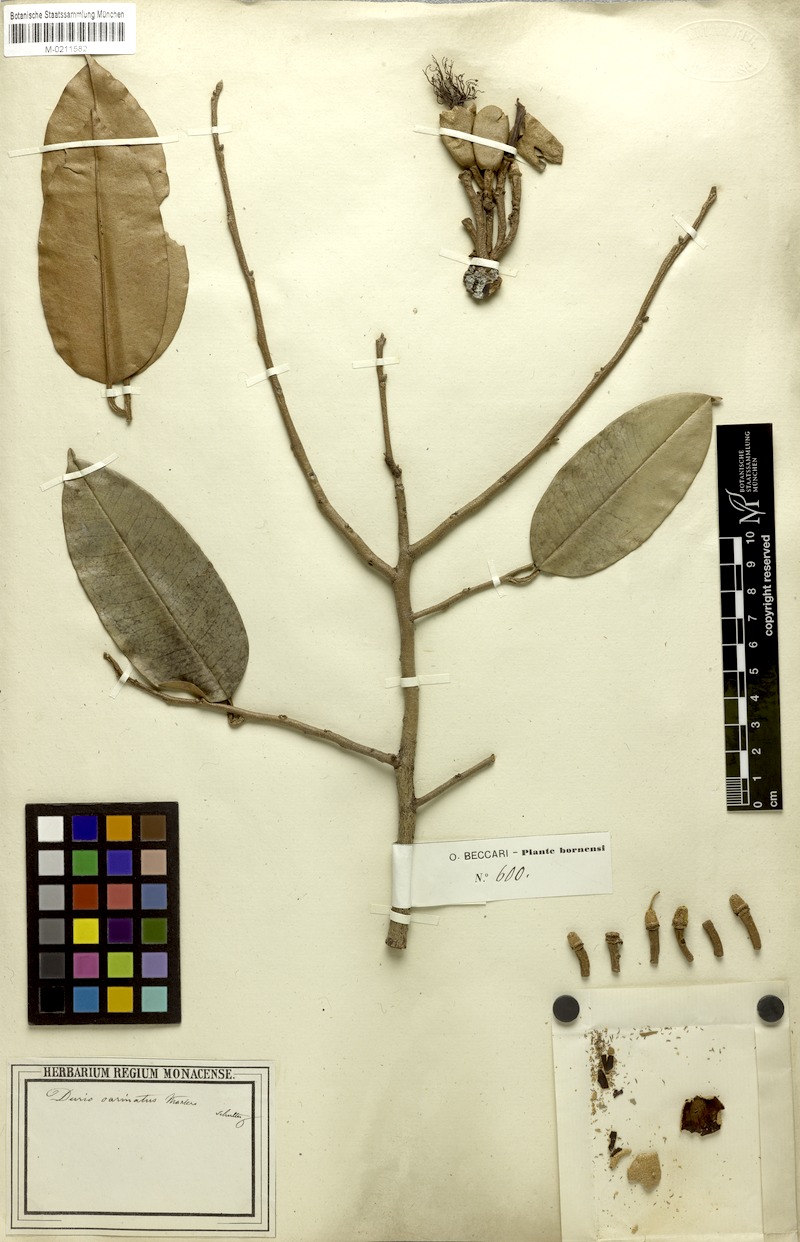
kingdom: Plantae
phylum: Tracheophyta
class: Magnoliopsida
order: Malvales
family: Malvaceae
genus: Durio
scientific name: Durio carinatus
